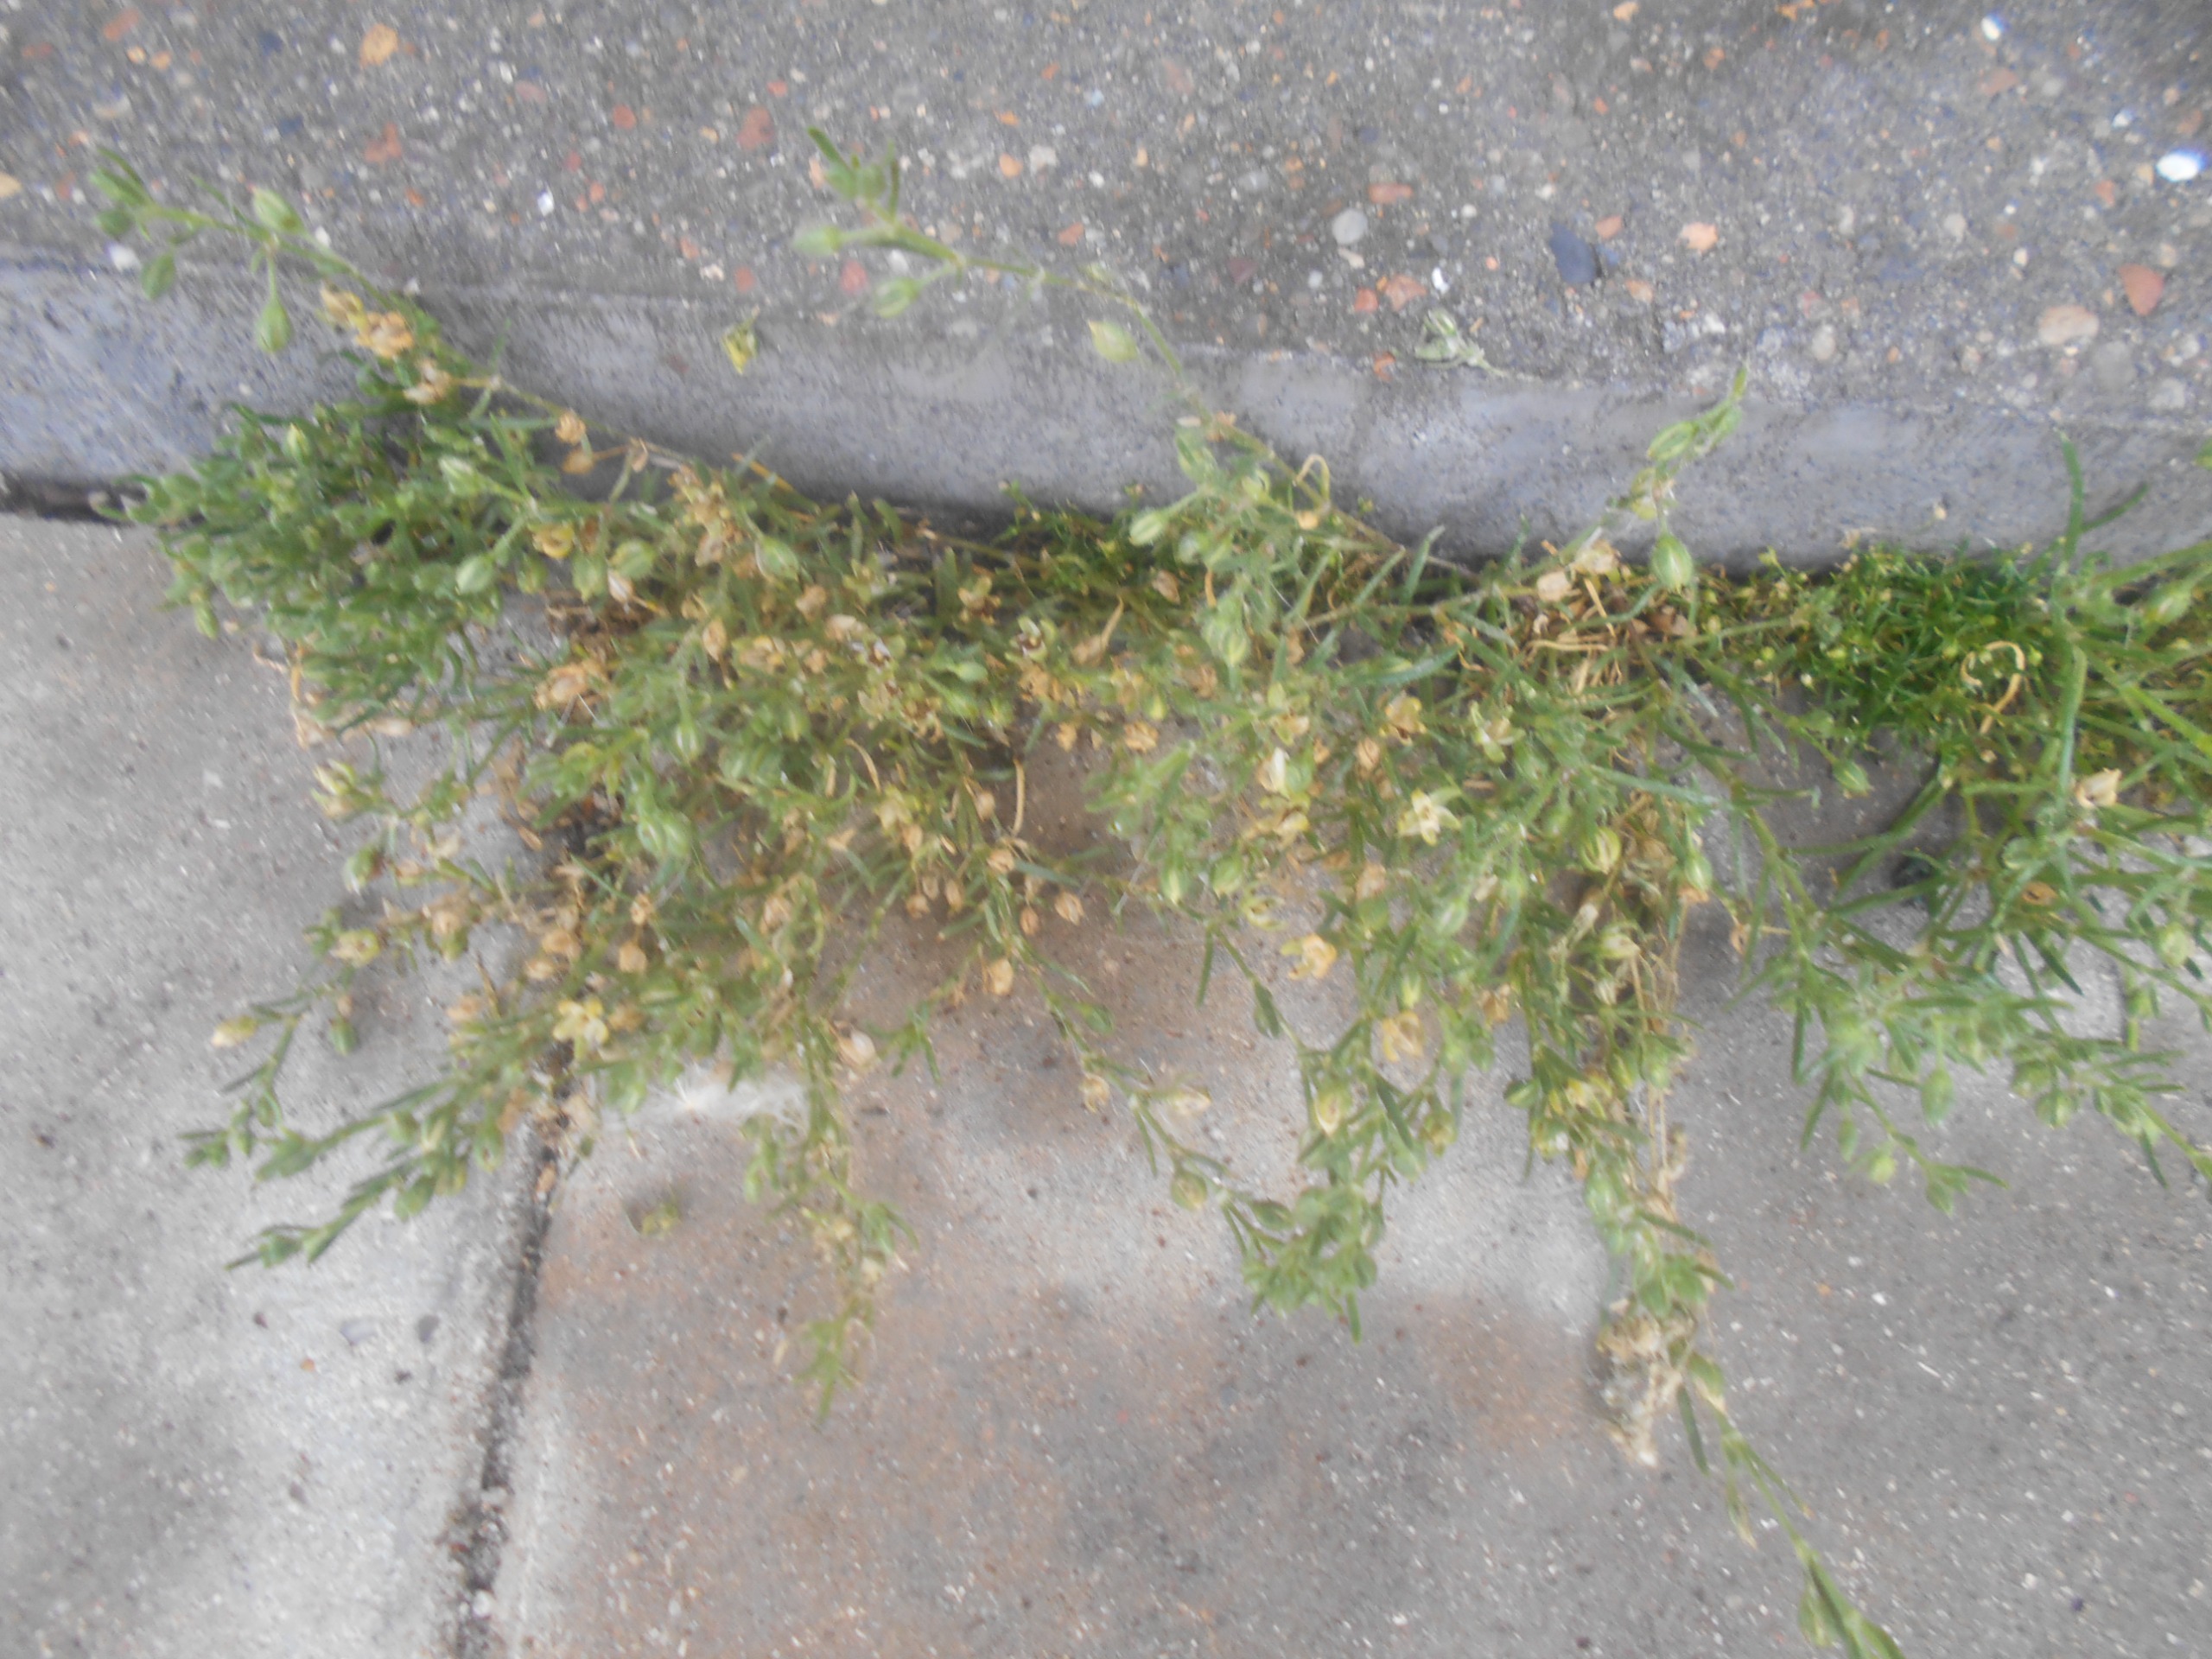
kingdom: Plantae
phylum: Tracheophyta
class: Magnoliopsida
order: Caryophyllales
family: Caryophyllaceae
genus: Spergularia
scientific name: Spergularia
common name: Hindeknæslægten
